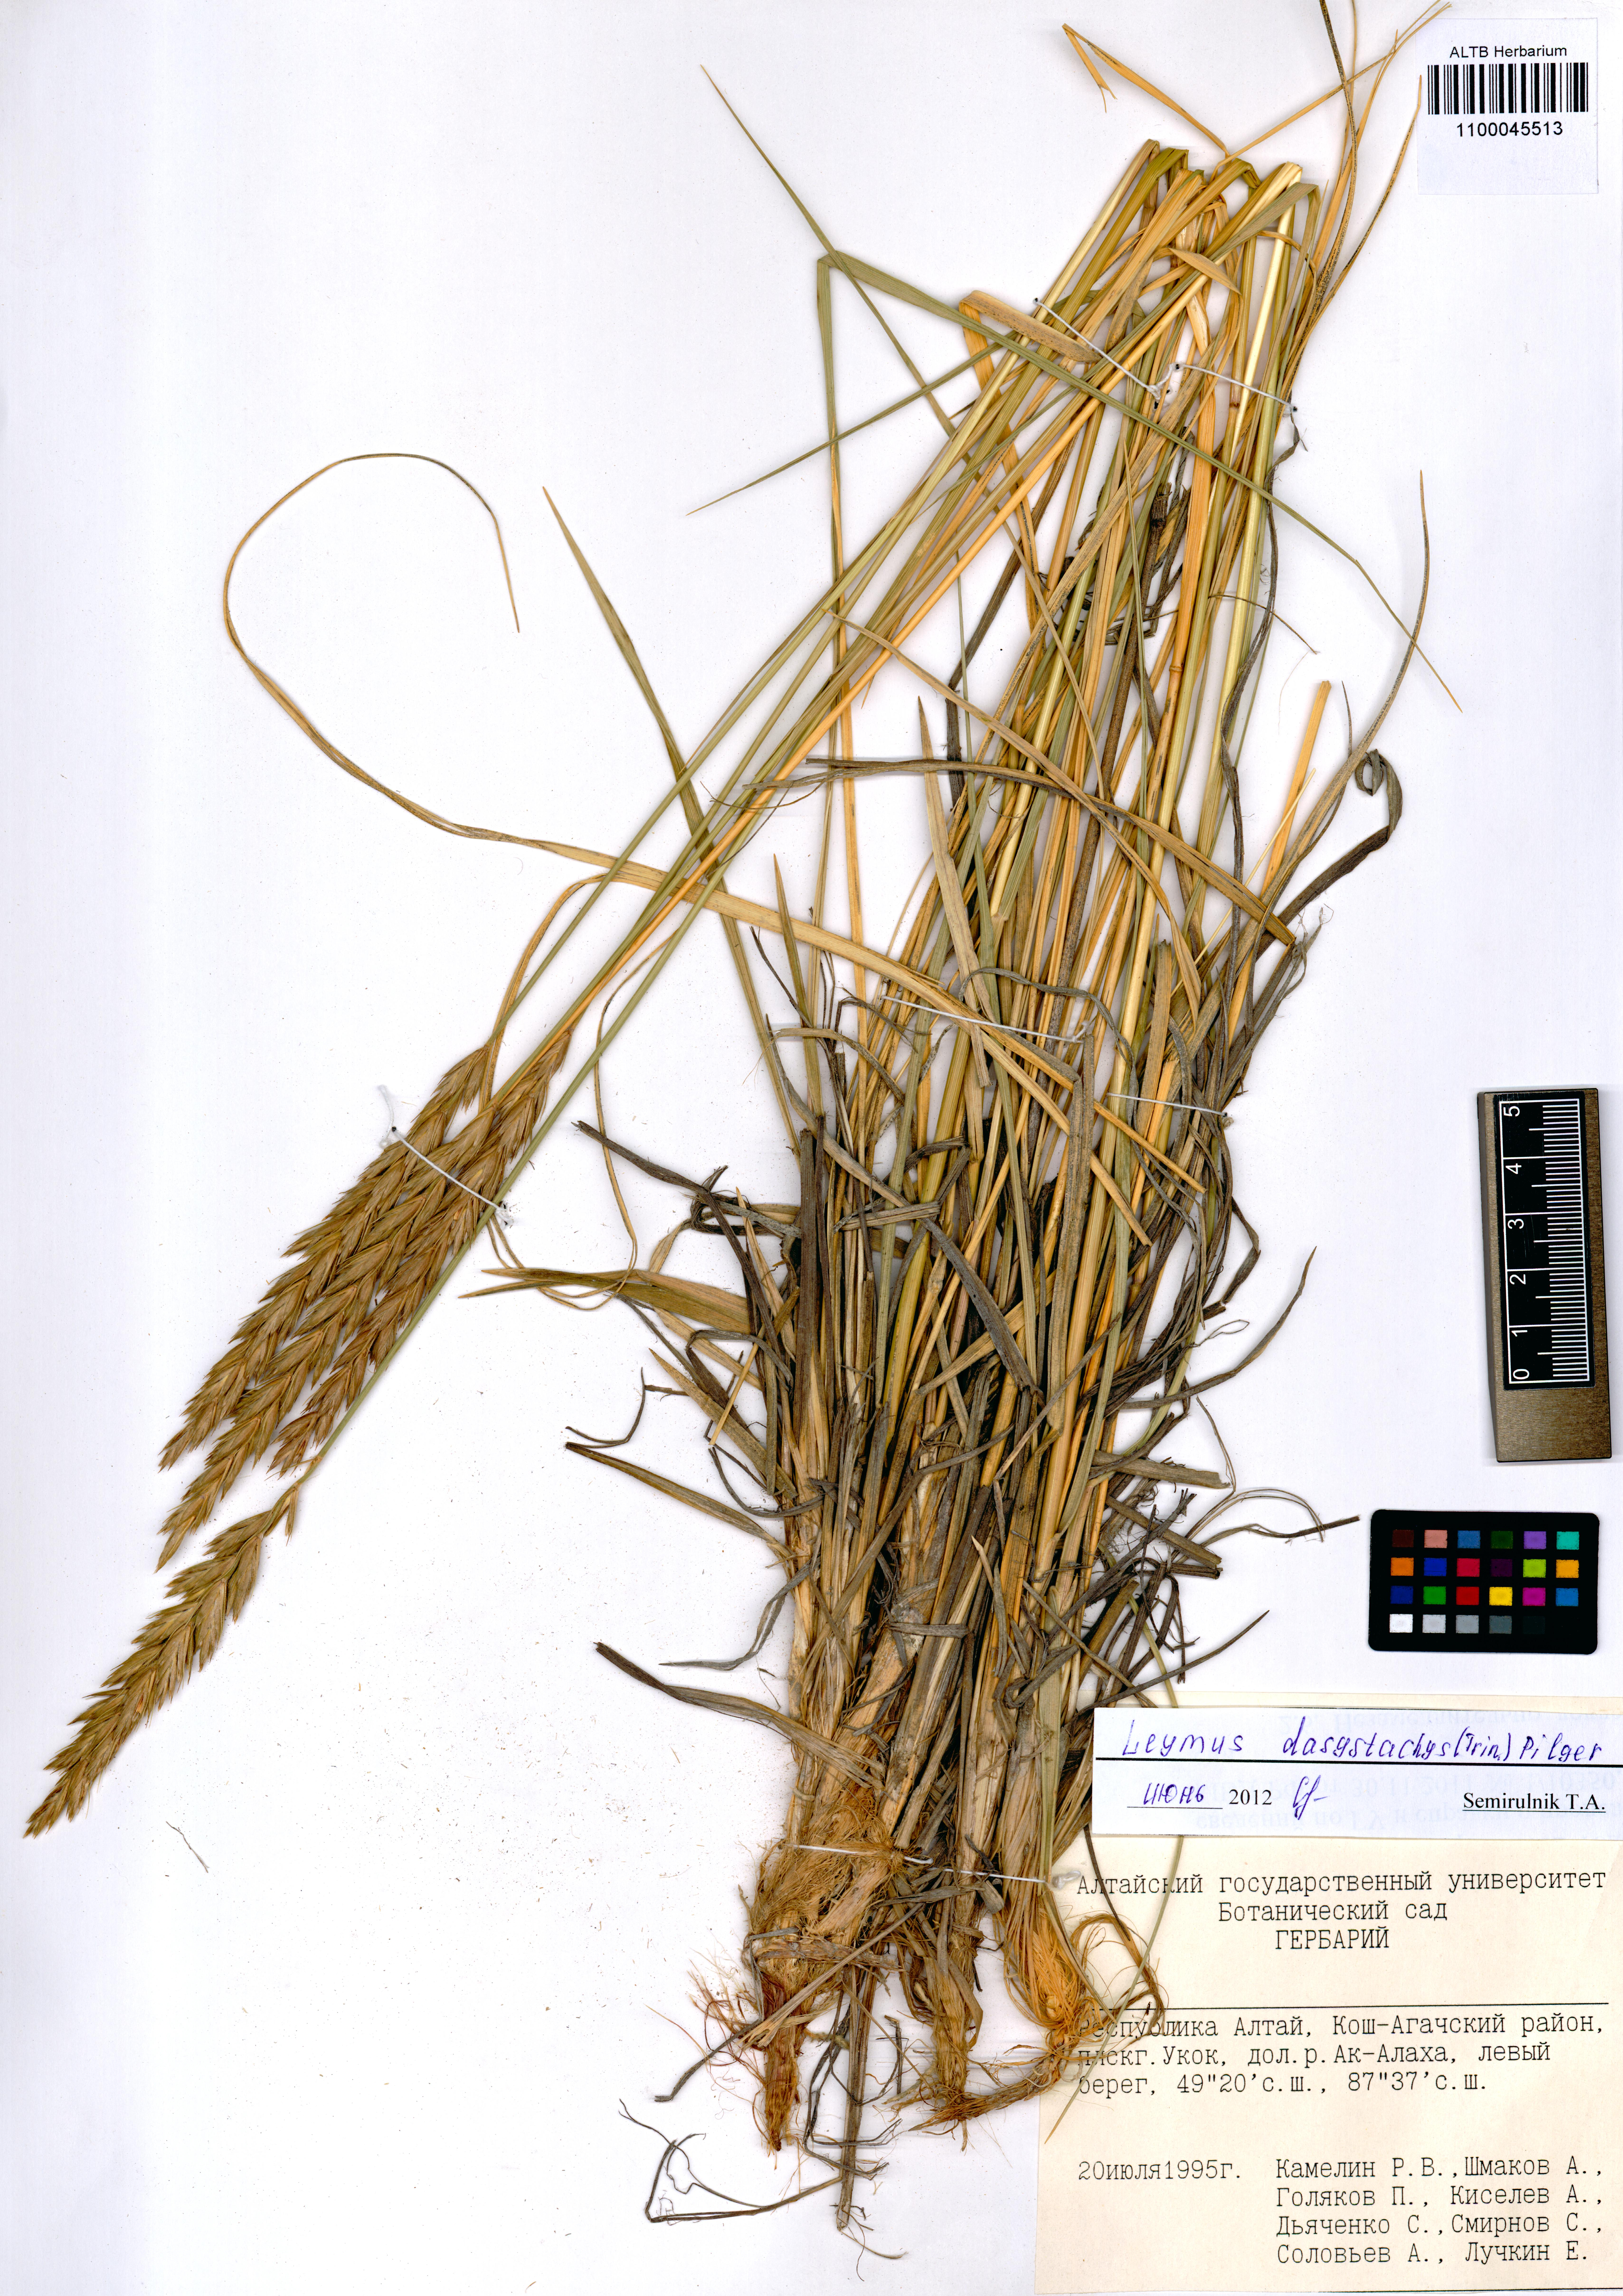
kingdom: Plantae
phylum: Tracheophyta
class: Liliopsida
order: Poales
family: Poaceae
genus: Leymus
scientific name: Leymus secalinus
